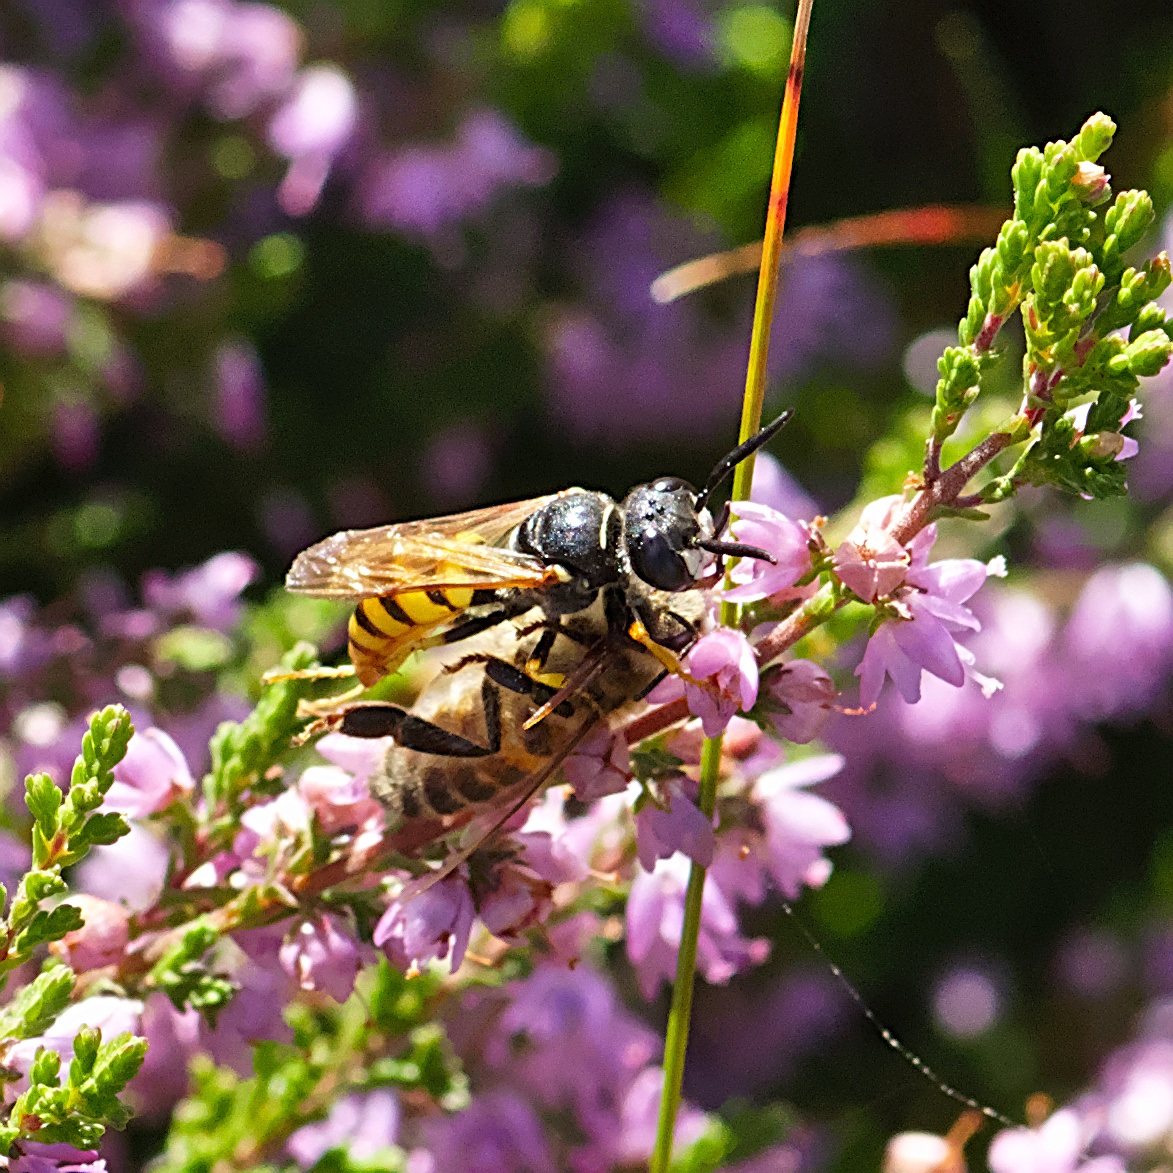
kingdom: Animalia
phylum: Arthropoda
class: Insecta
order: Hymenoptera
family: Crabronidae
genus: Philanthus
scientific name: Philanthus triangulum
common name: Biulv
